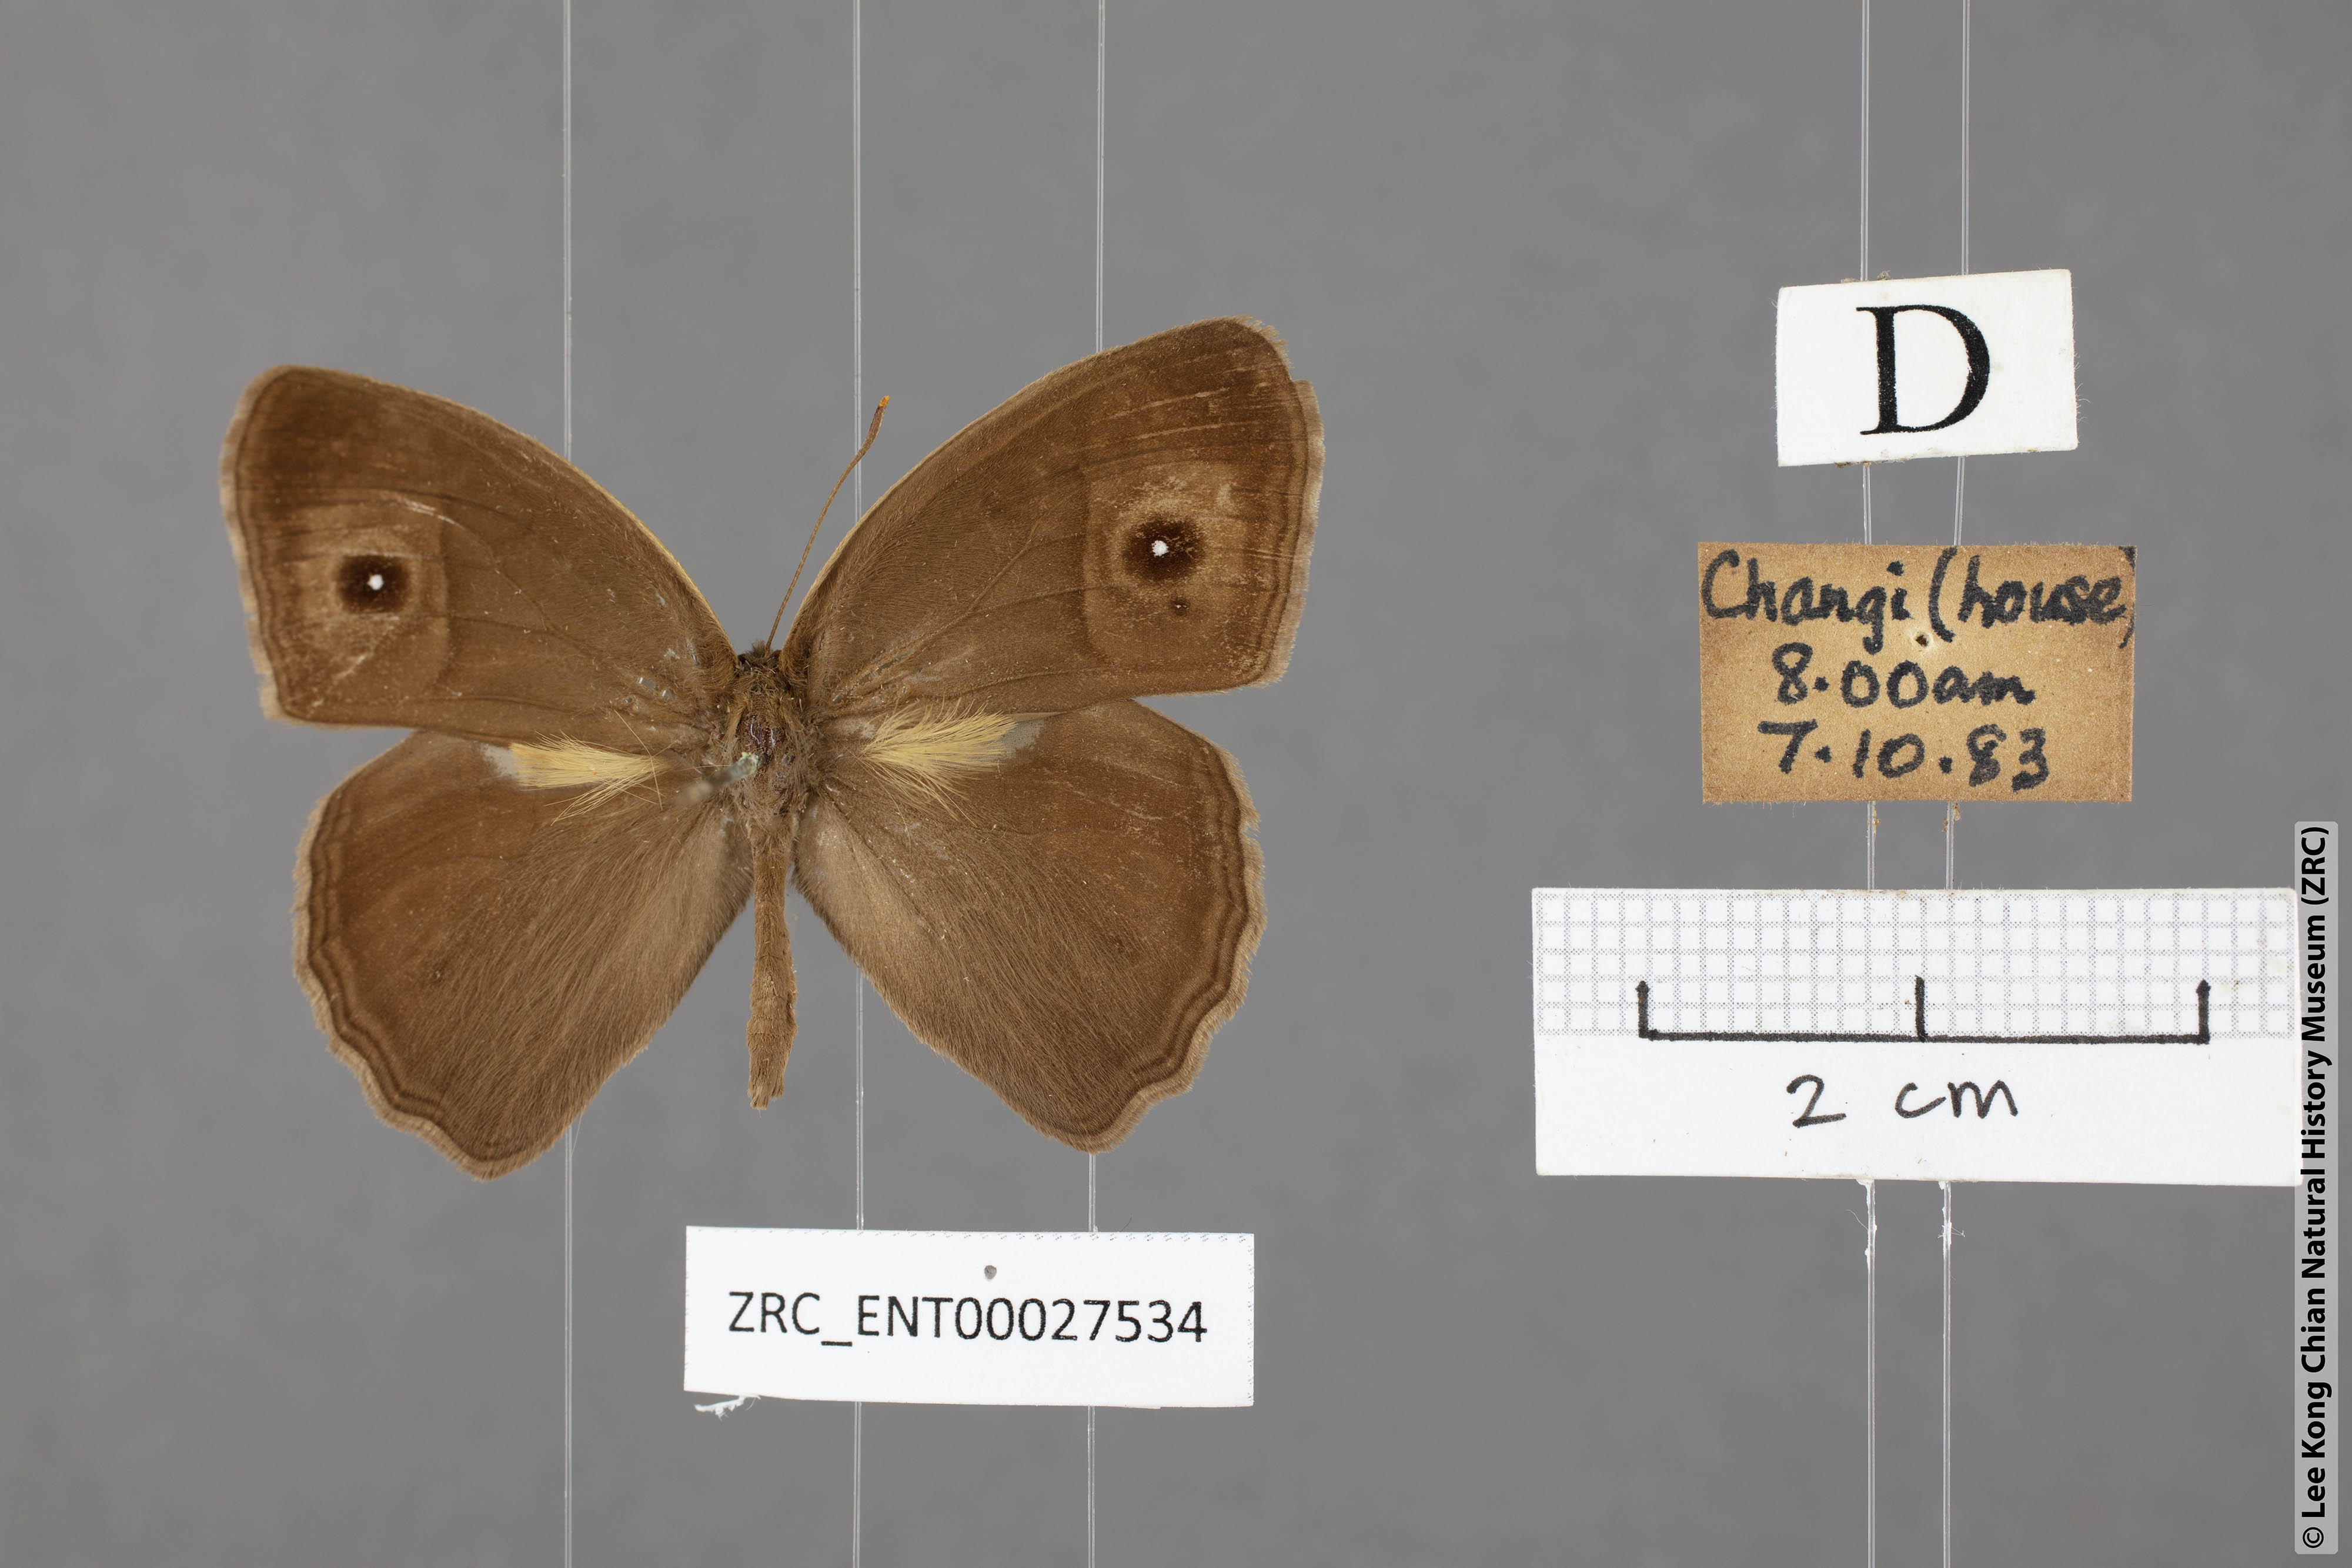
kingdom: Animalia
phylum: Arthropoda
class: Insecta
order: Lepidoptera
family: Nymphalidae
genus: Mycalesis
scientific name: Mycalesis visala
